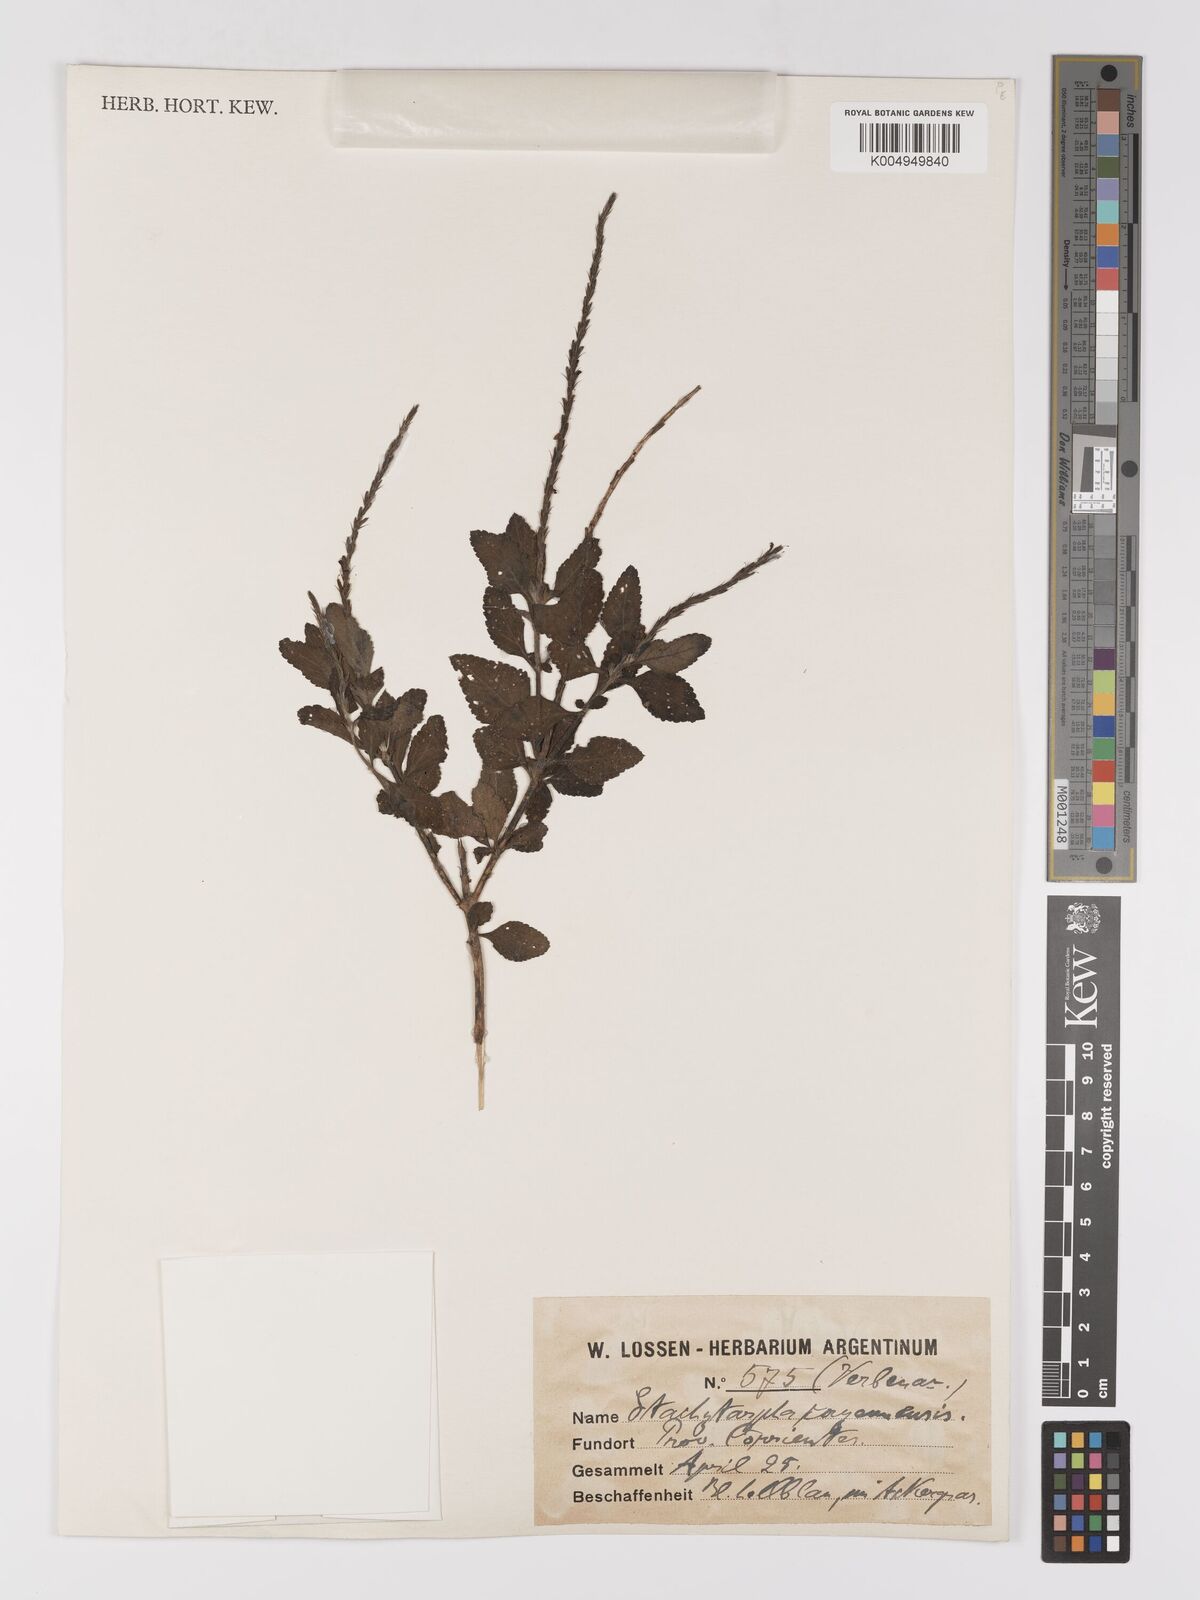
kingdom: Plantae
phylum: Tracheophyta
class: Magnoliopsida
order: Lamiales
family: Verbenaceae
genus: Stachytarpheta
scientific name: Stachytarpheta cayennensis
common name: Cayenne porterweed
